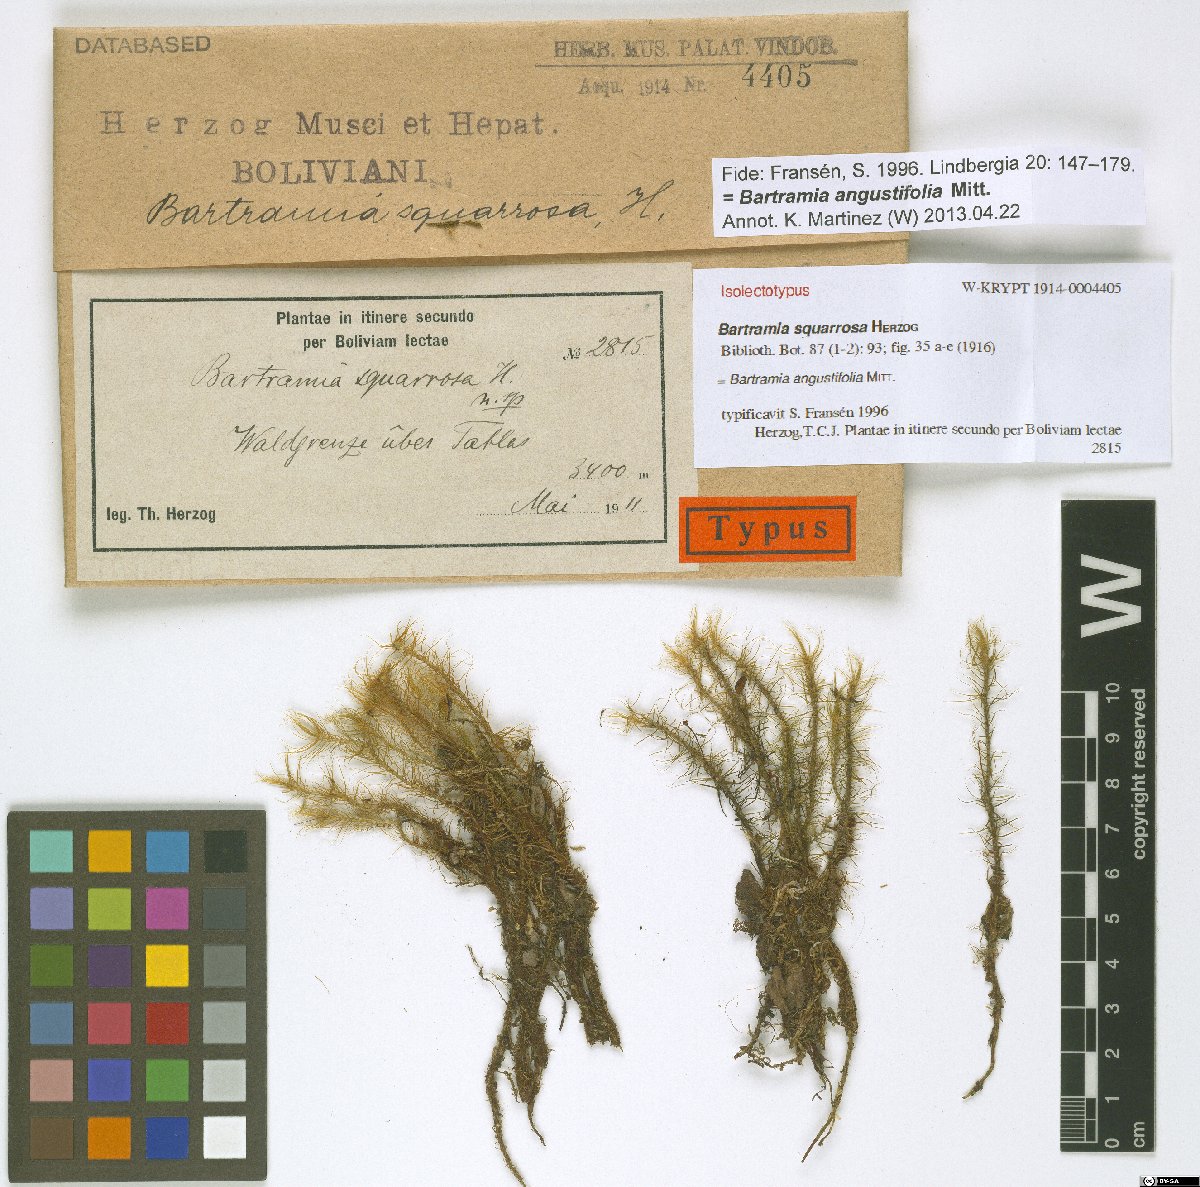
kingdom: Plantae
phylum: Bryophyta
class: Bryopsida
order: Bartramiales
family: Bartramiaceae
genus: Bartramia
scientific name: Bartramia angustifolia
